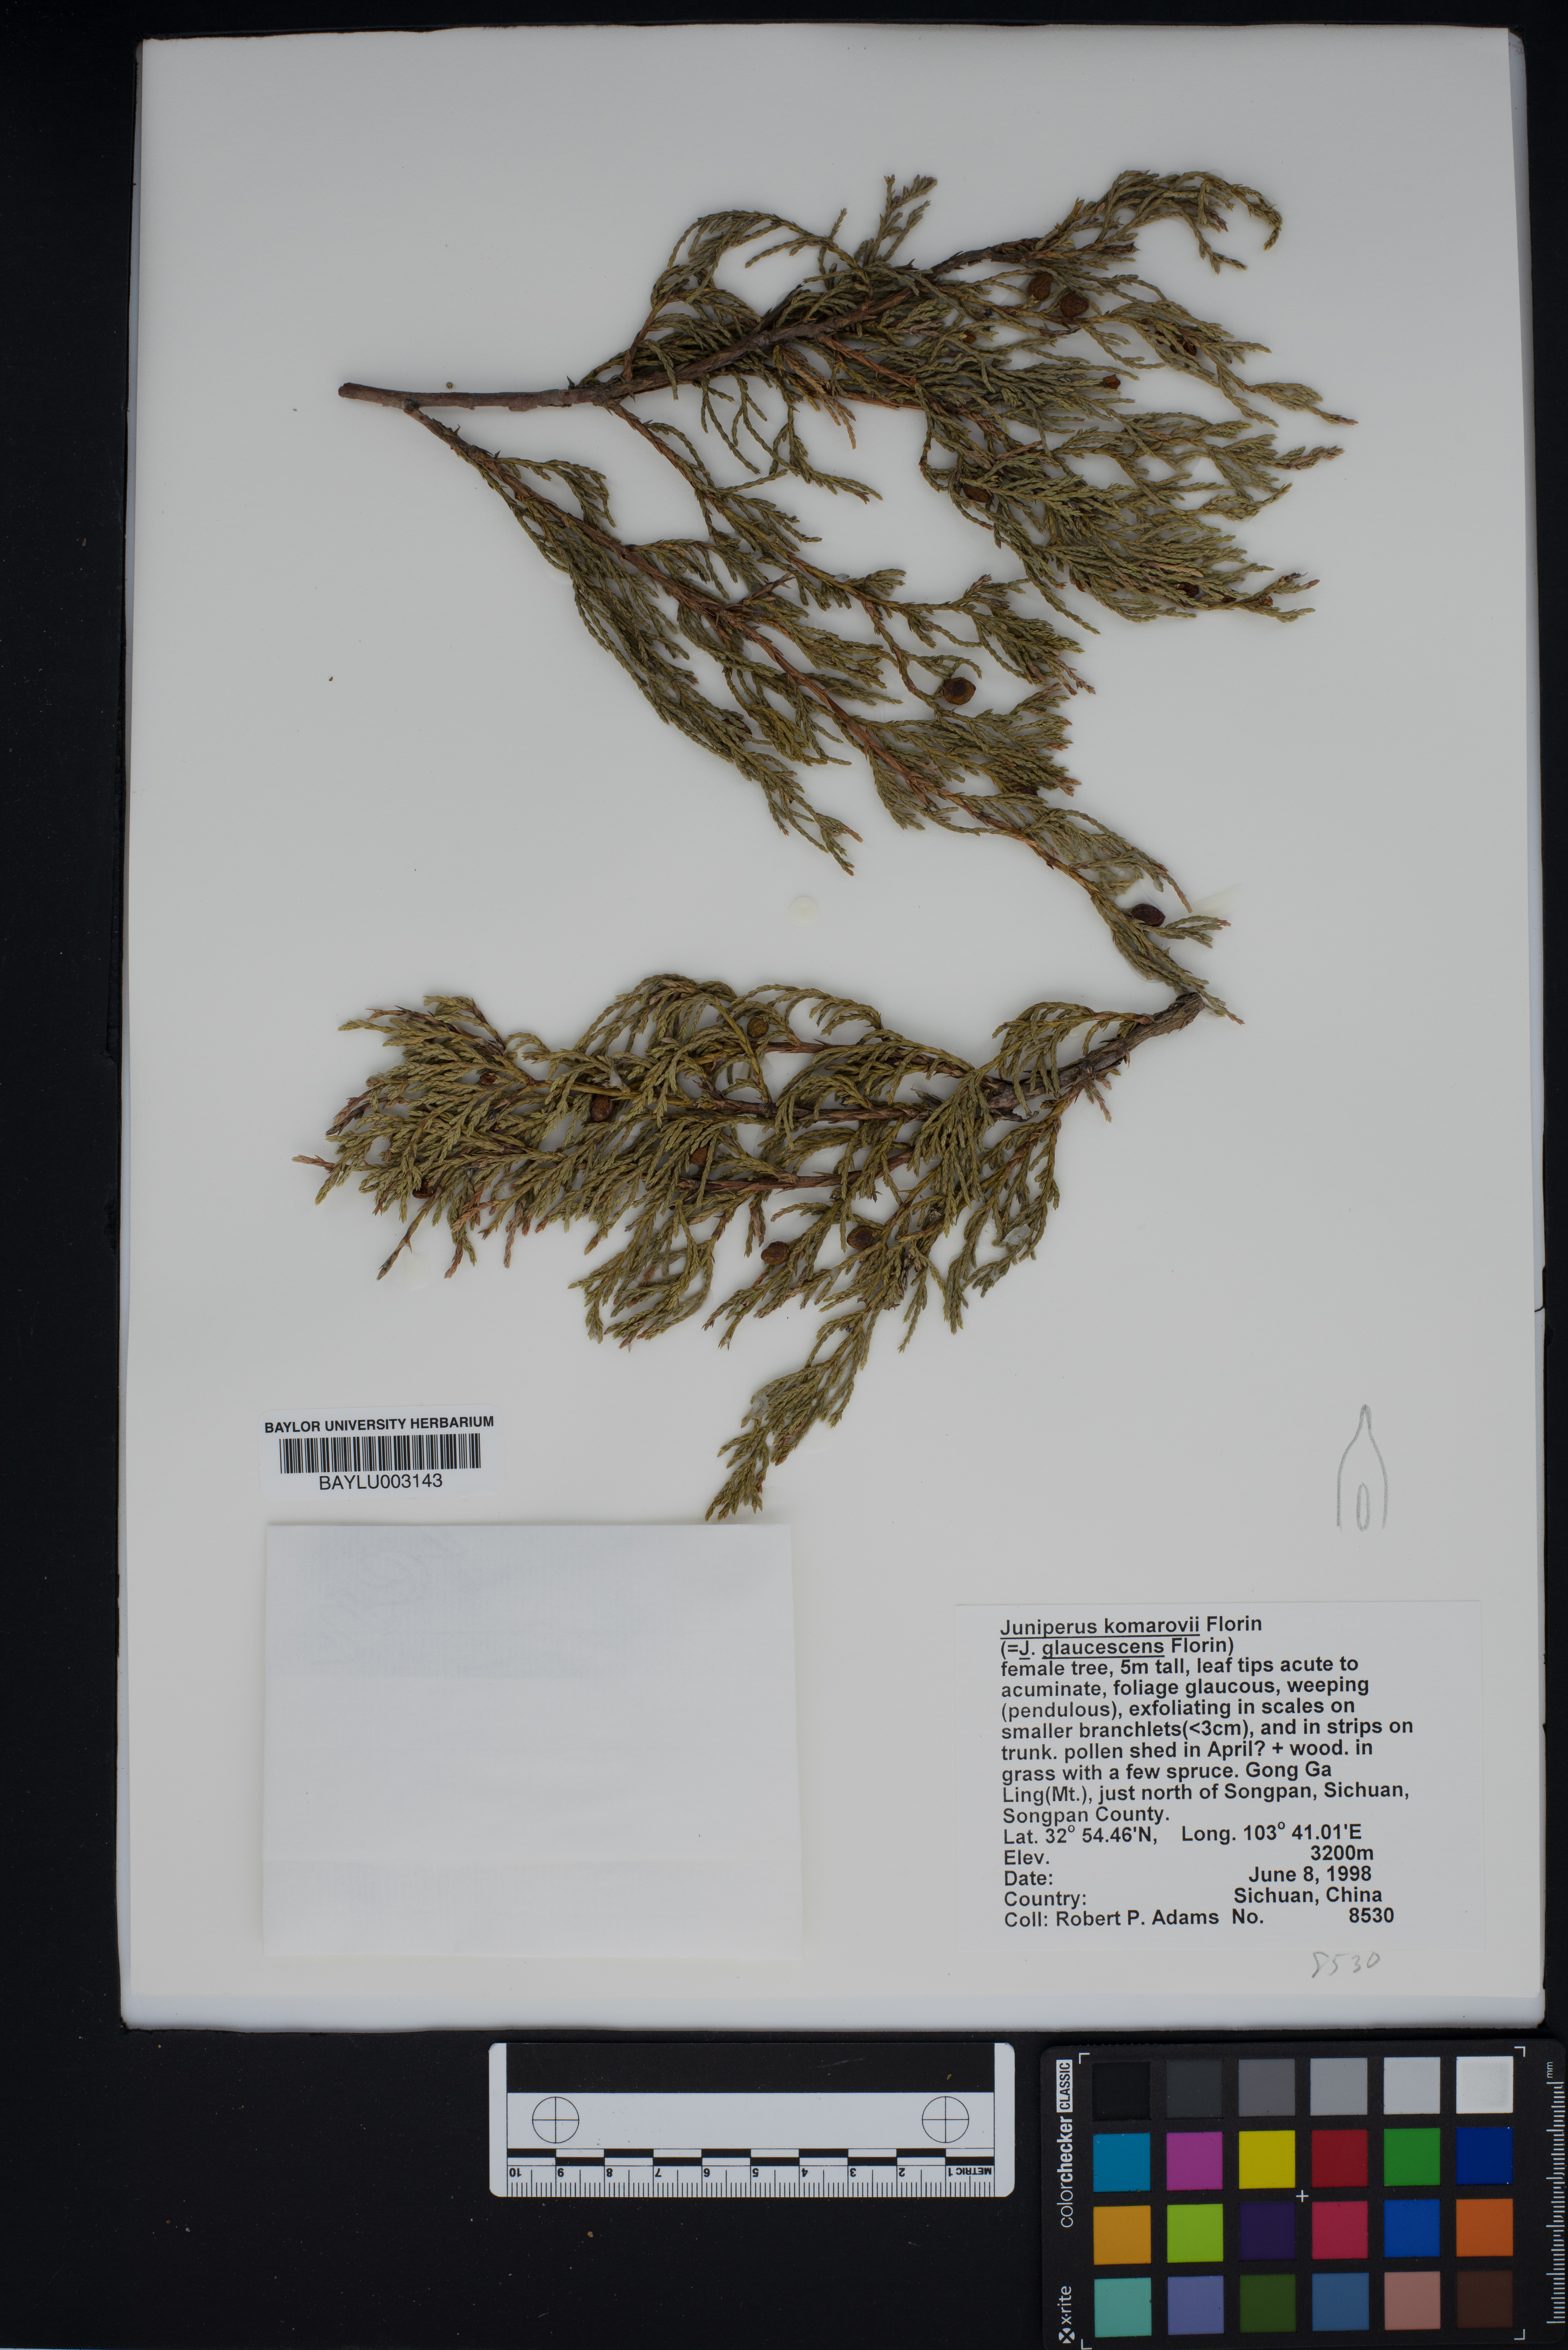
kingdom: Plantae
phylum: Tracheophyta
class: Pinopsida
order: Pinales
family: Cupressaceae
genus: Juniperus
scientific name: Juniperus komarovii
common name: Komarov's juniper
